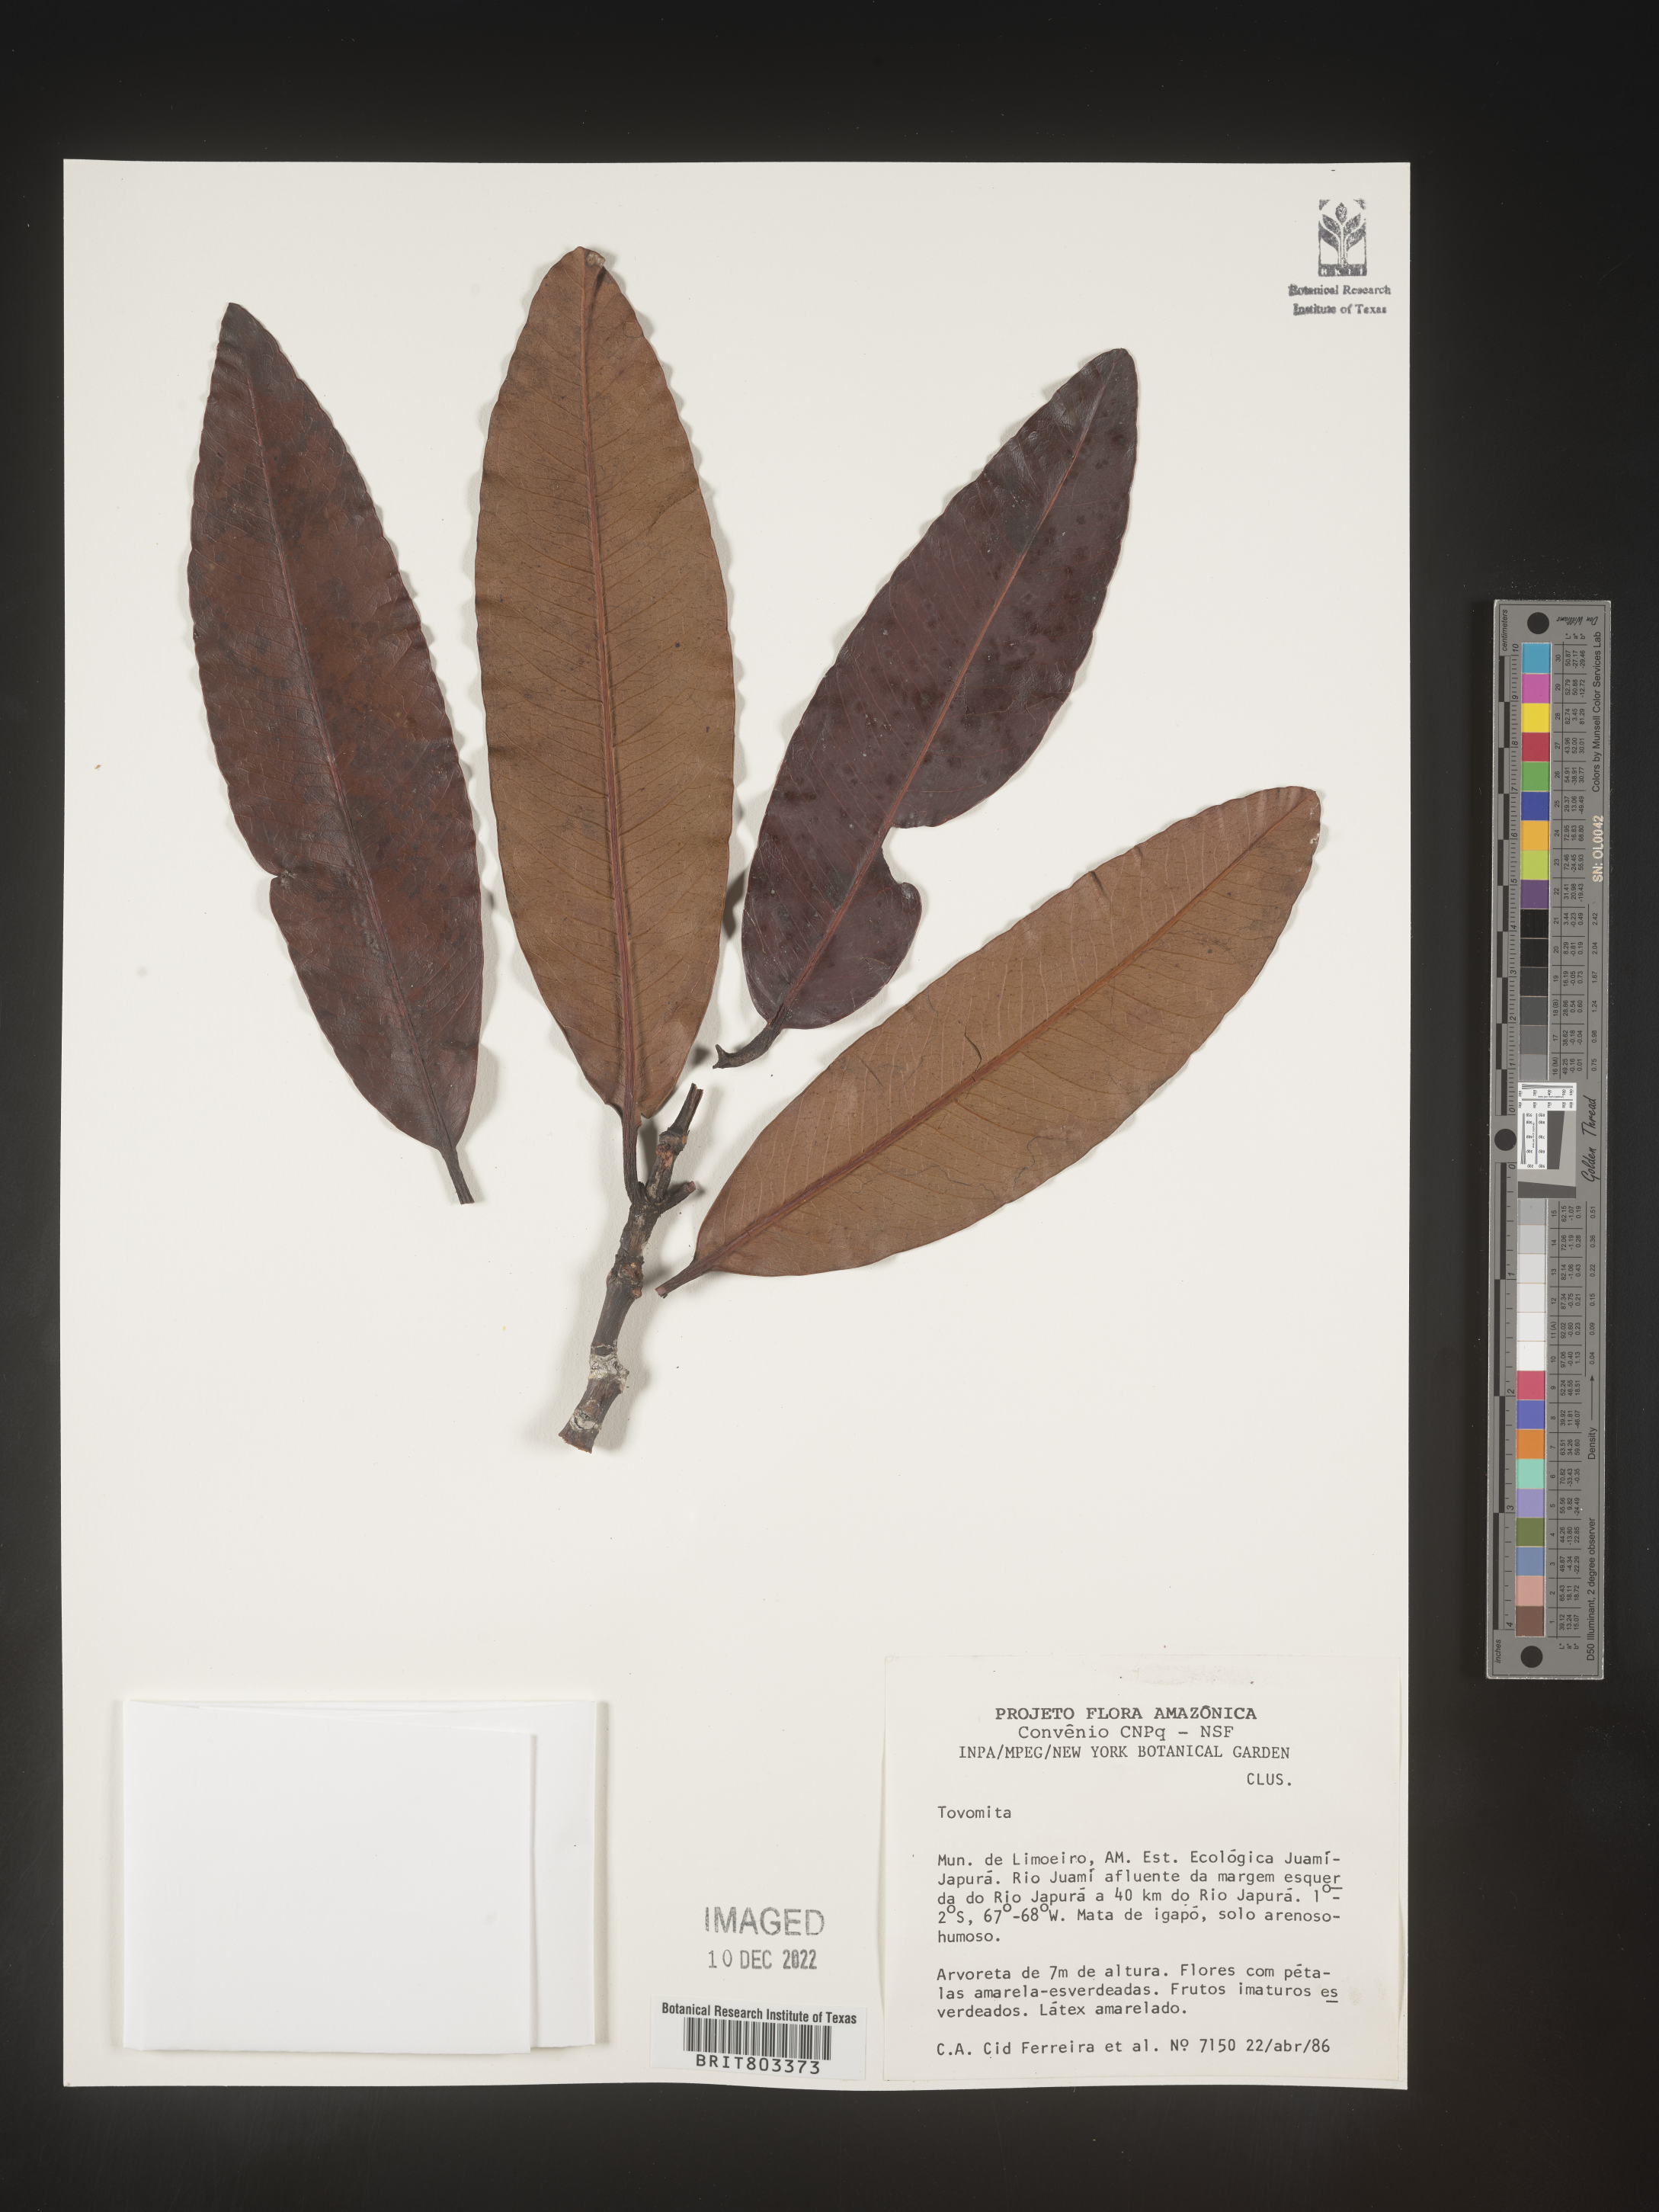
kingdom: Plantae
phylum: Tracheophyta
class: Magnoliopsida
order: Malpighiales
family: Clusiaceae
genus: Tovomita
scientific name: Tovomita
